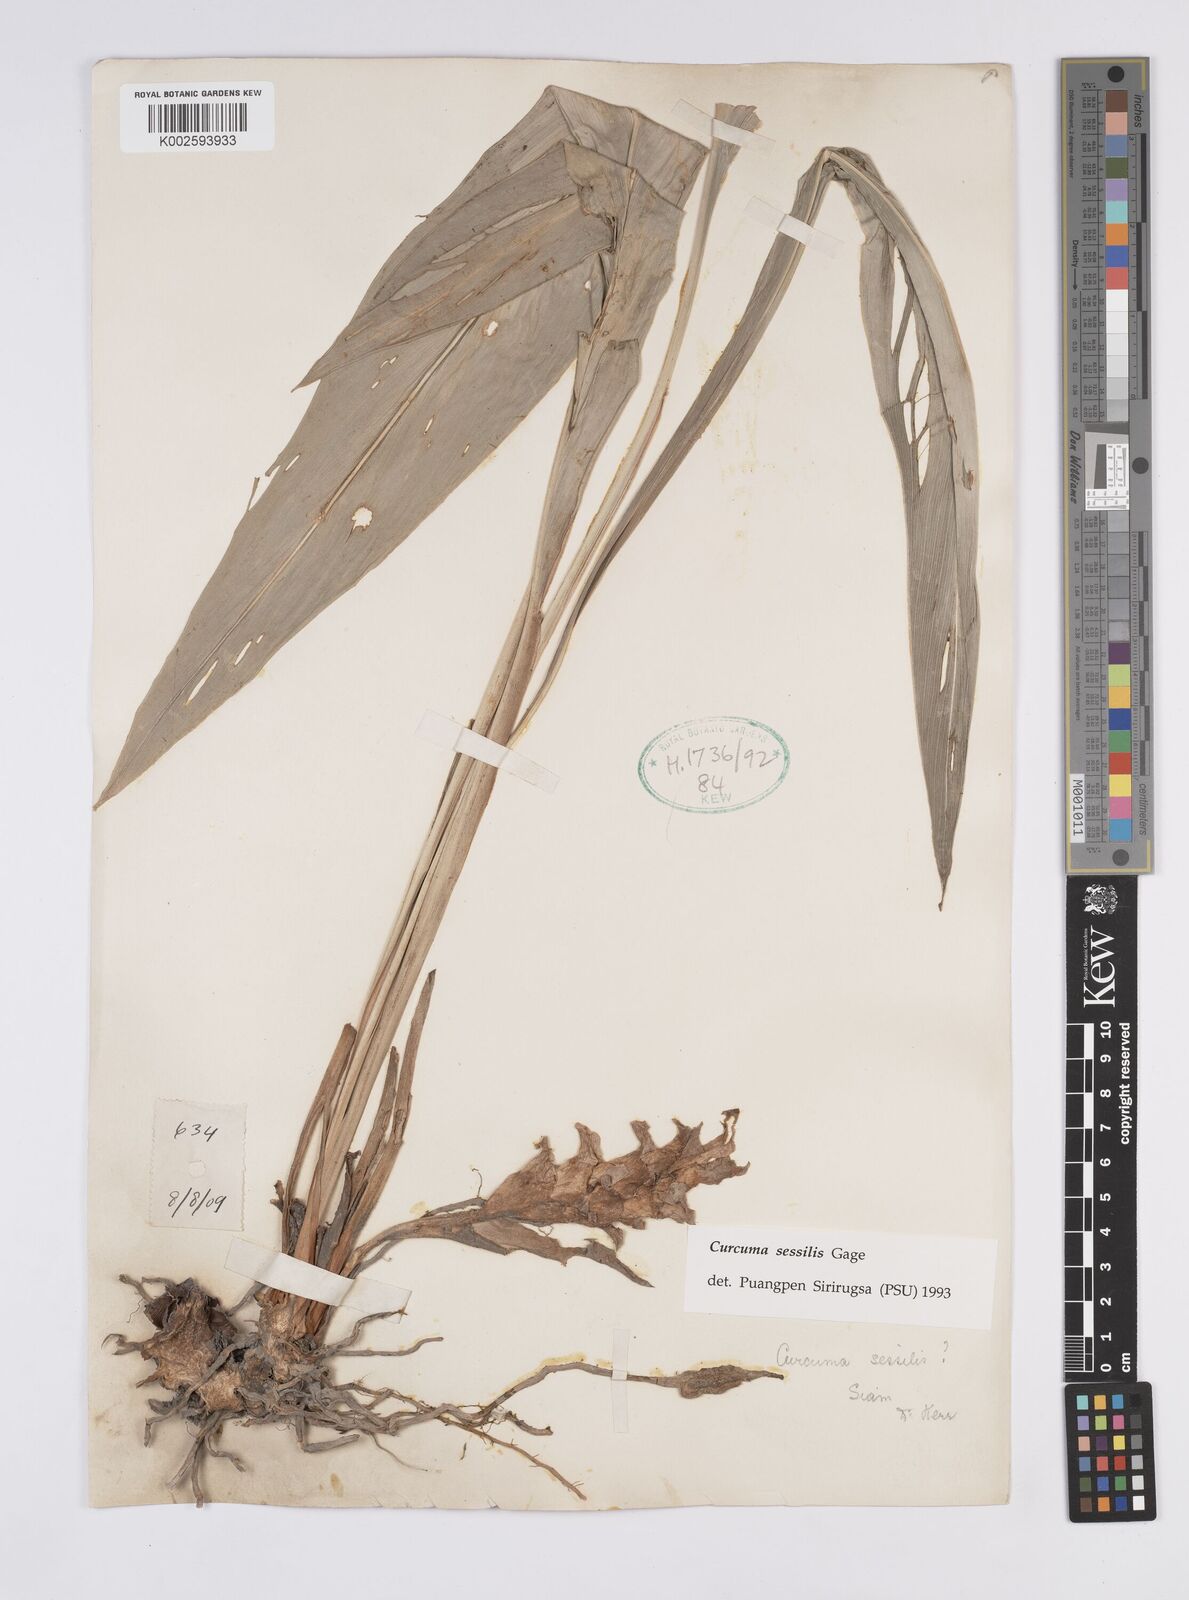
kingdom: Plantae
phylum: Tracheophyta
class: Liliopsida
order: Zingiberales
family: Zingiberaceae
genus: Curcuma
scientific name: Curcuma sessilis
